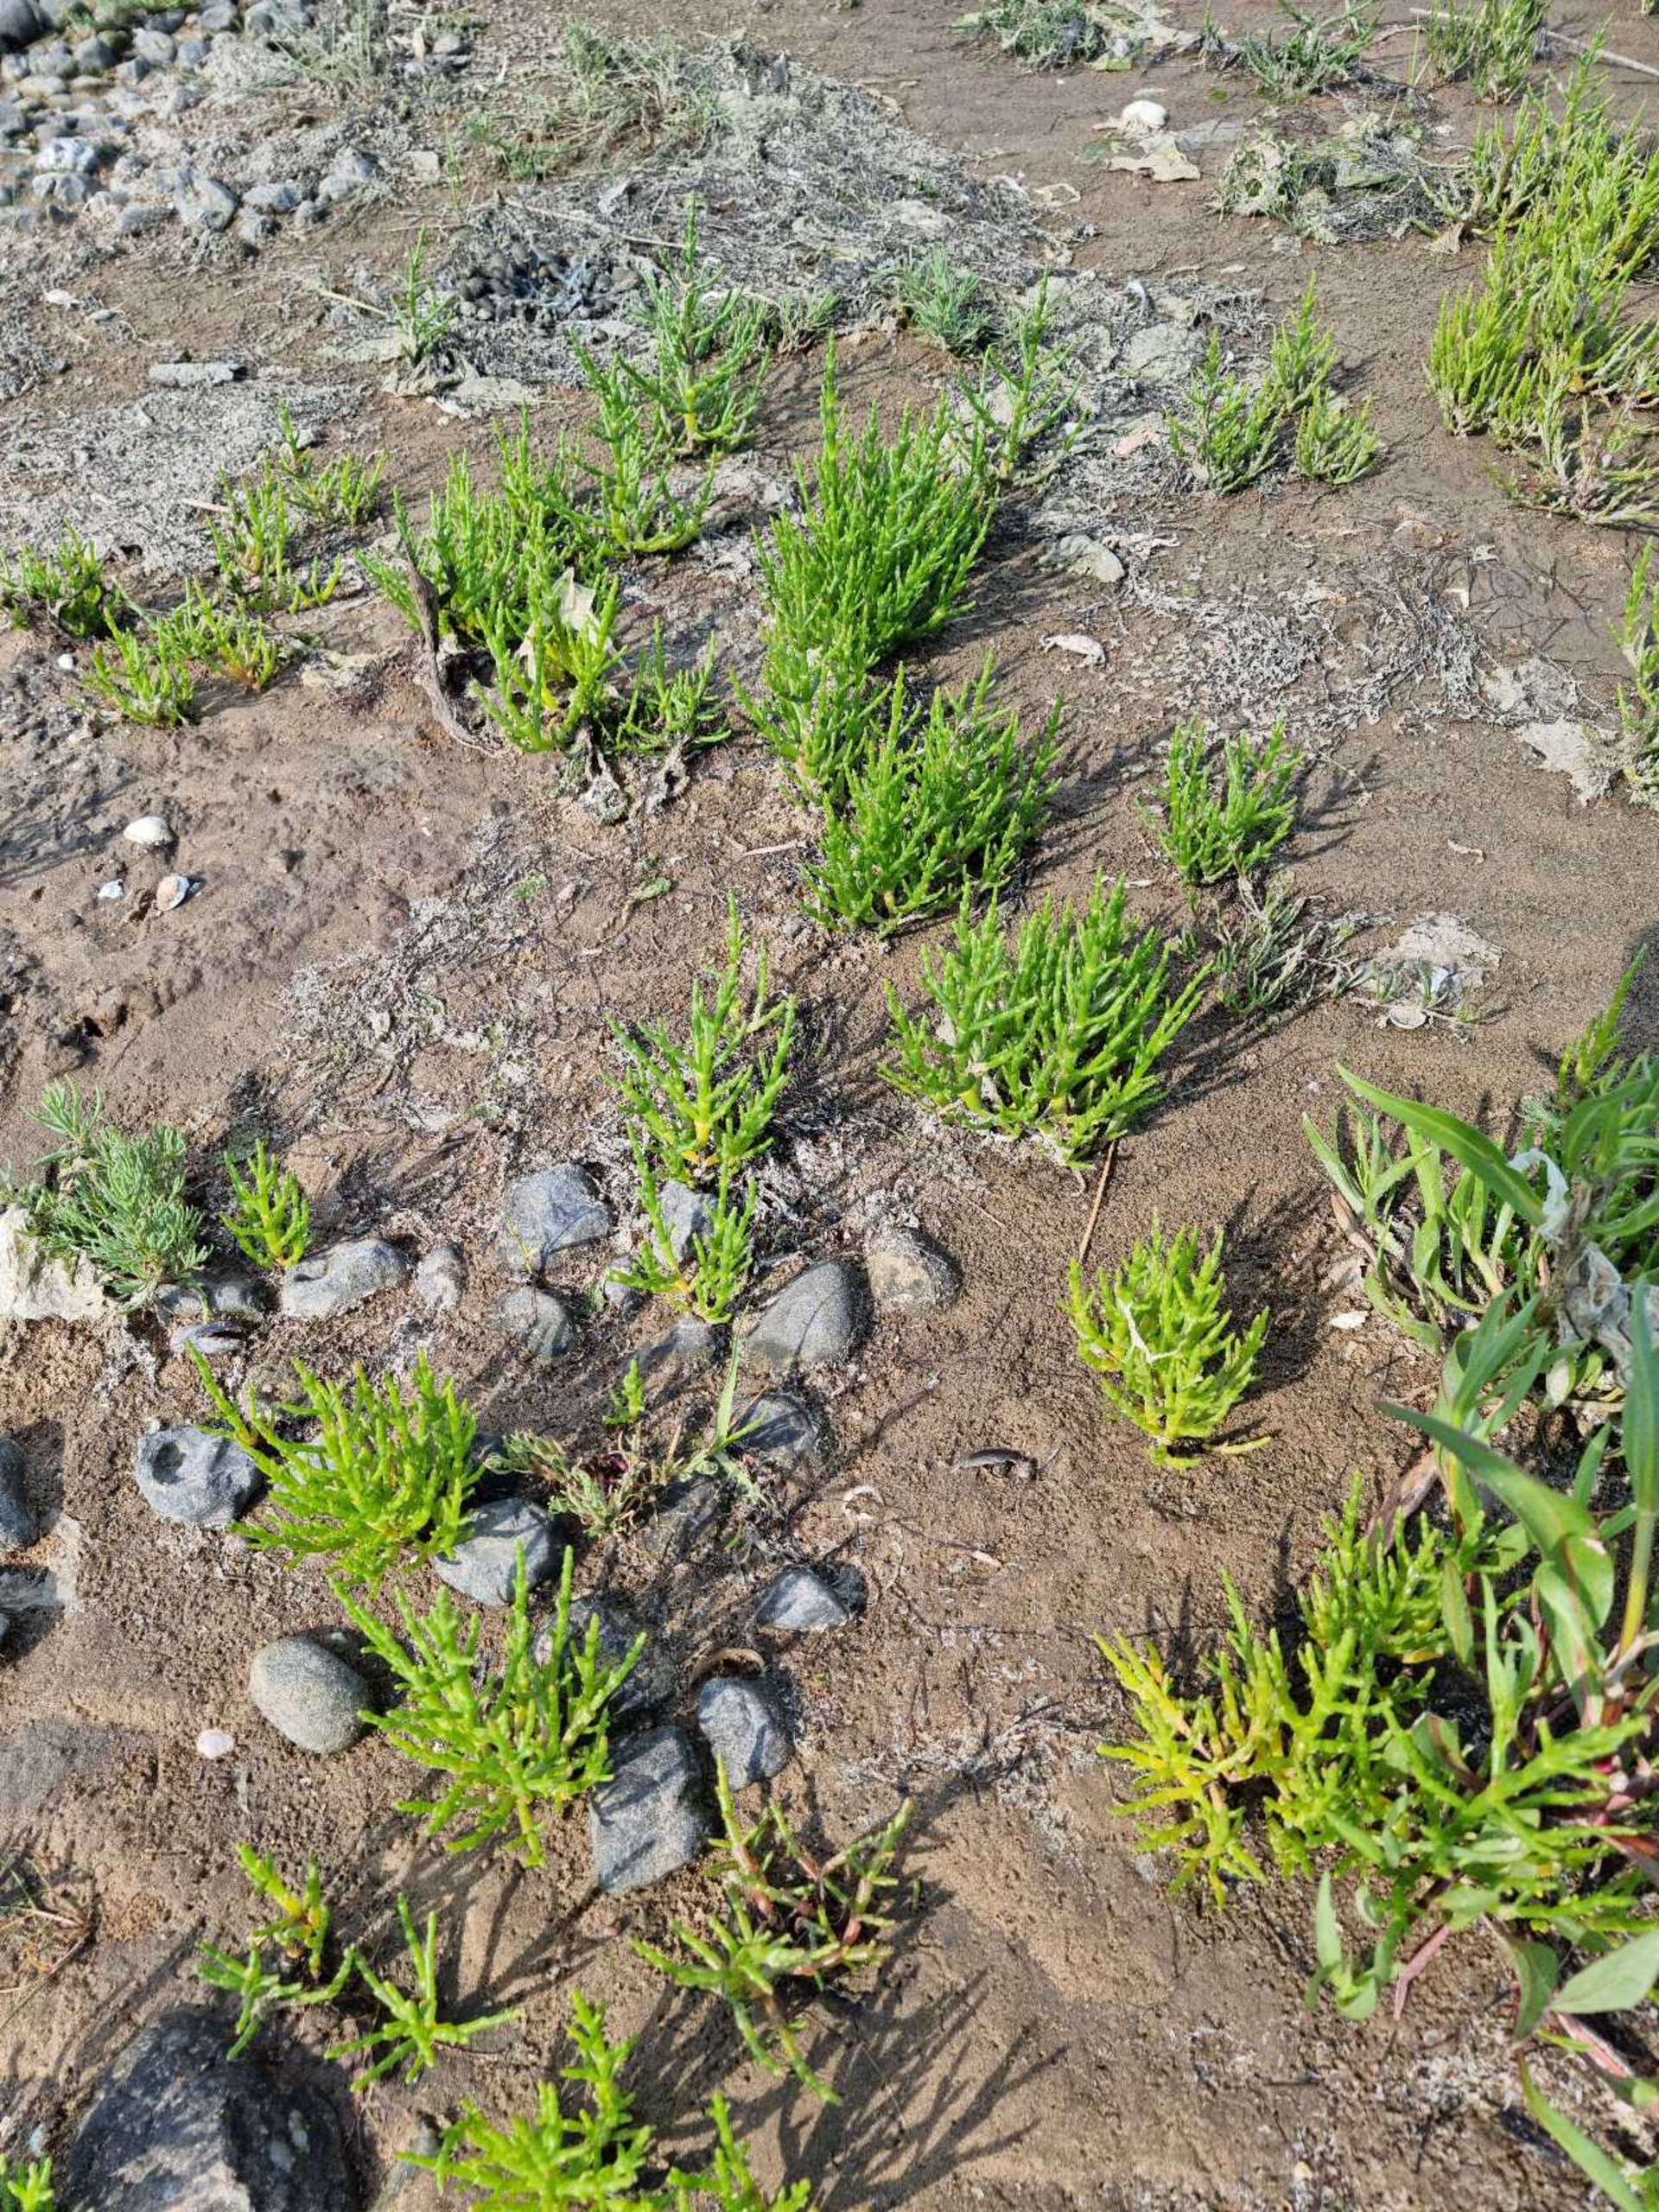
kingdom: Plantae
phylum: Tracheophyta
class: Magnoliopsida
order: Caryophyllales
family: Amaranthaceae
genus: Salicornia
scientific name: Salicornia europaea
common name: Almindelig salturt
